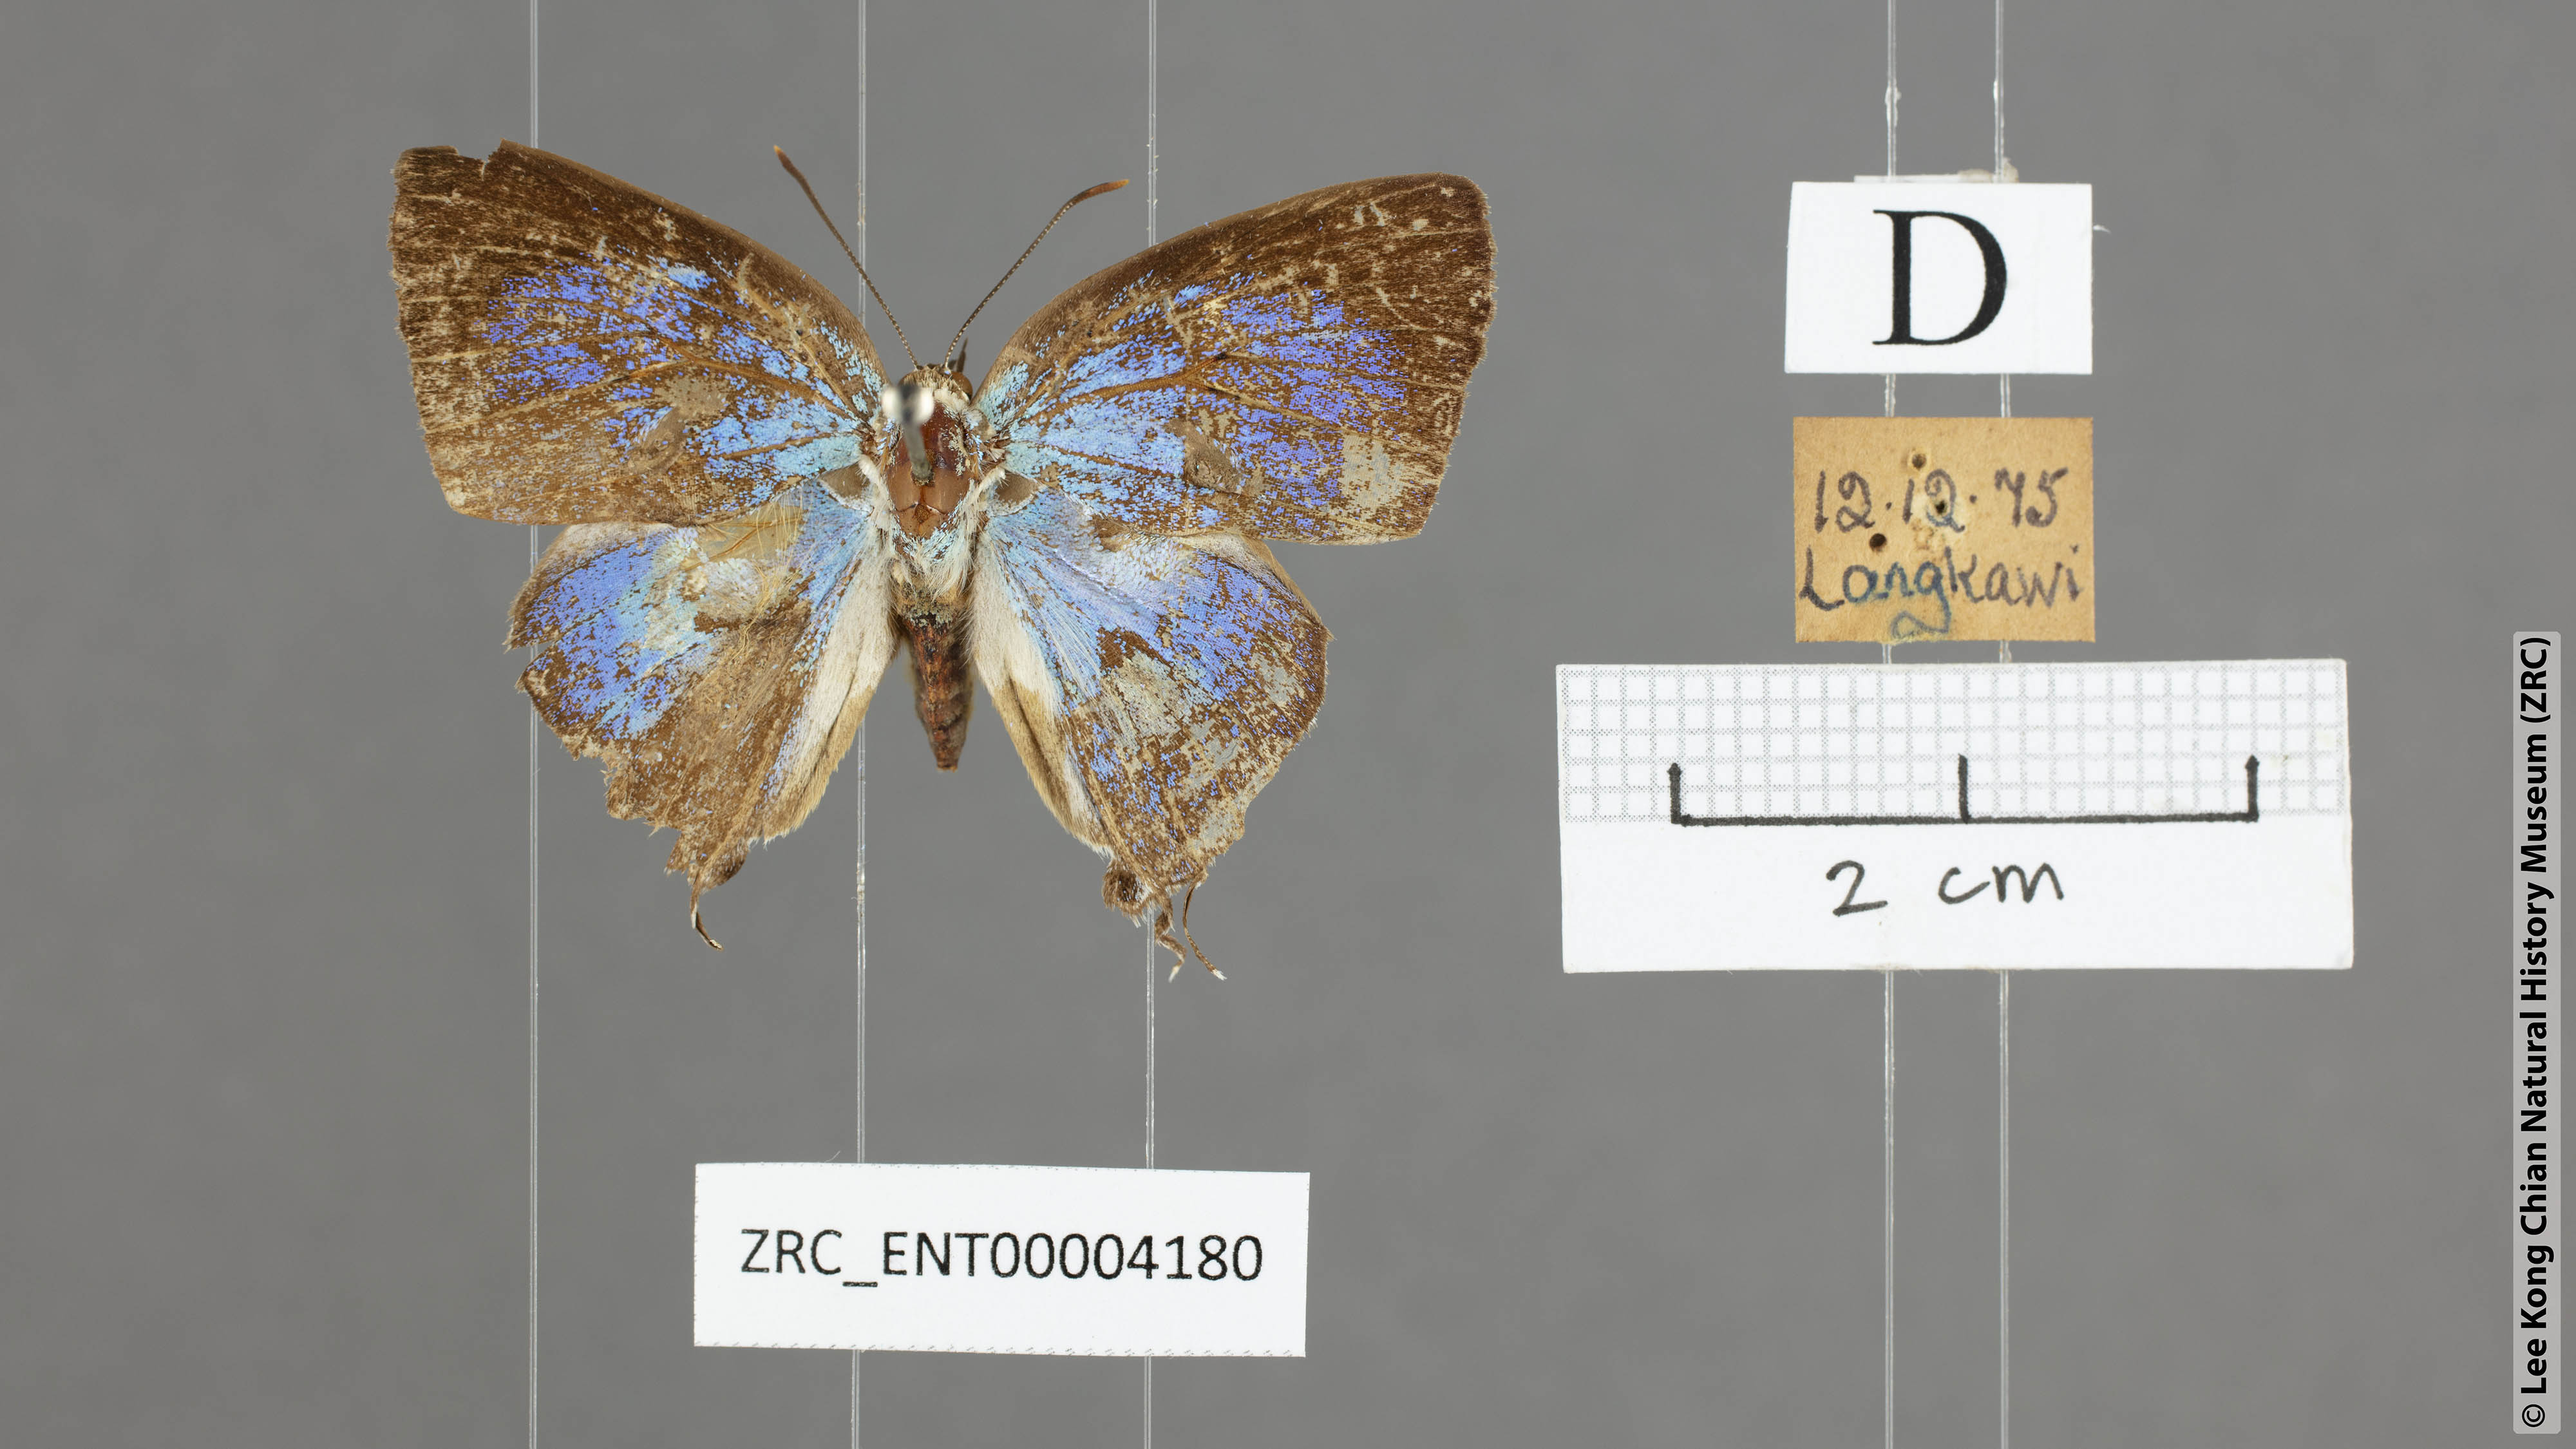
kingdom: Animalia
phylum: Arthropoda
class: Insecta
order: Lepidoptera
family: Lycaenidae
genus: Dacalana
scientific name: Dacalana vidura
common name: Medium-branded royal
